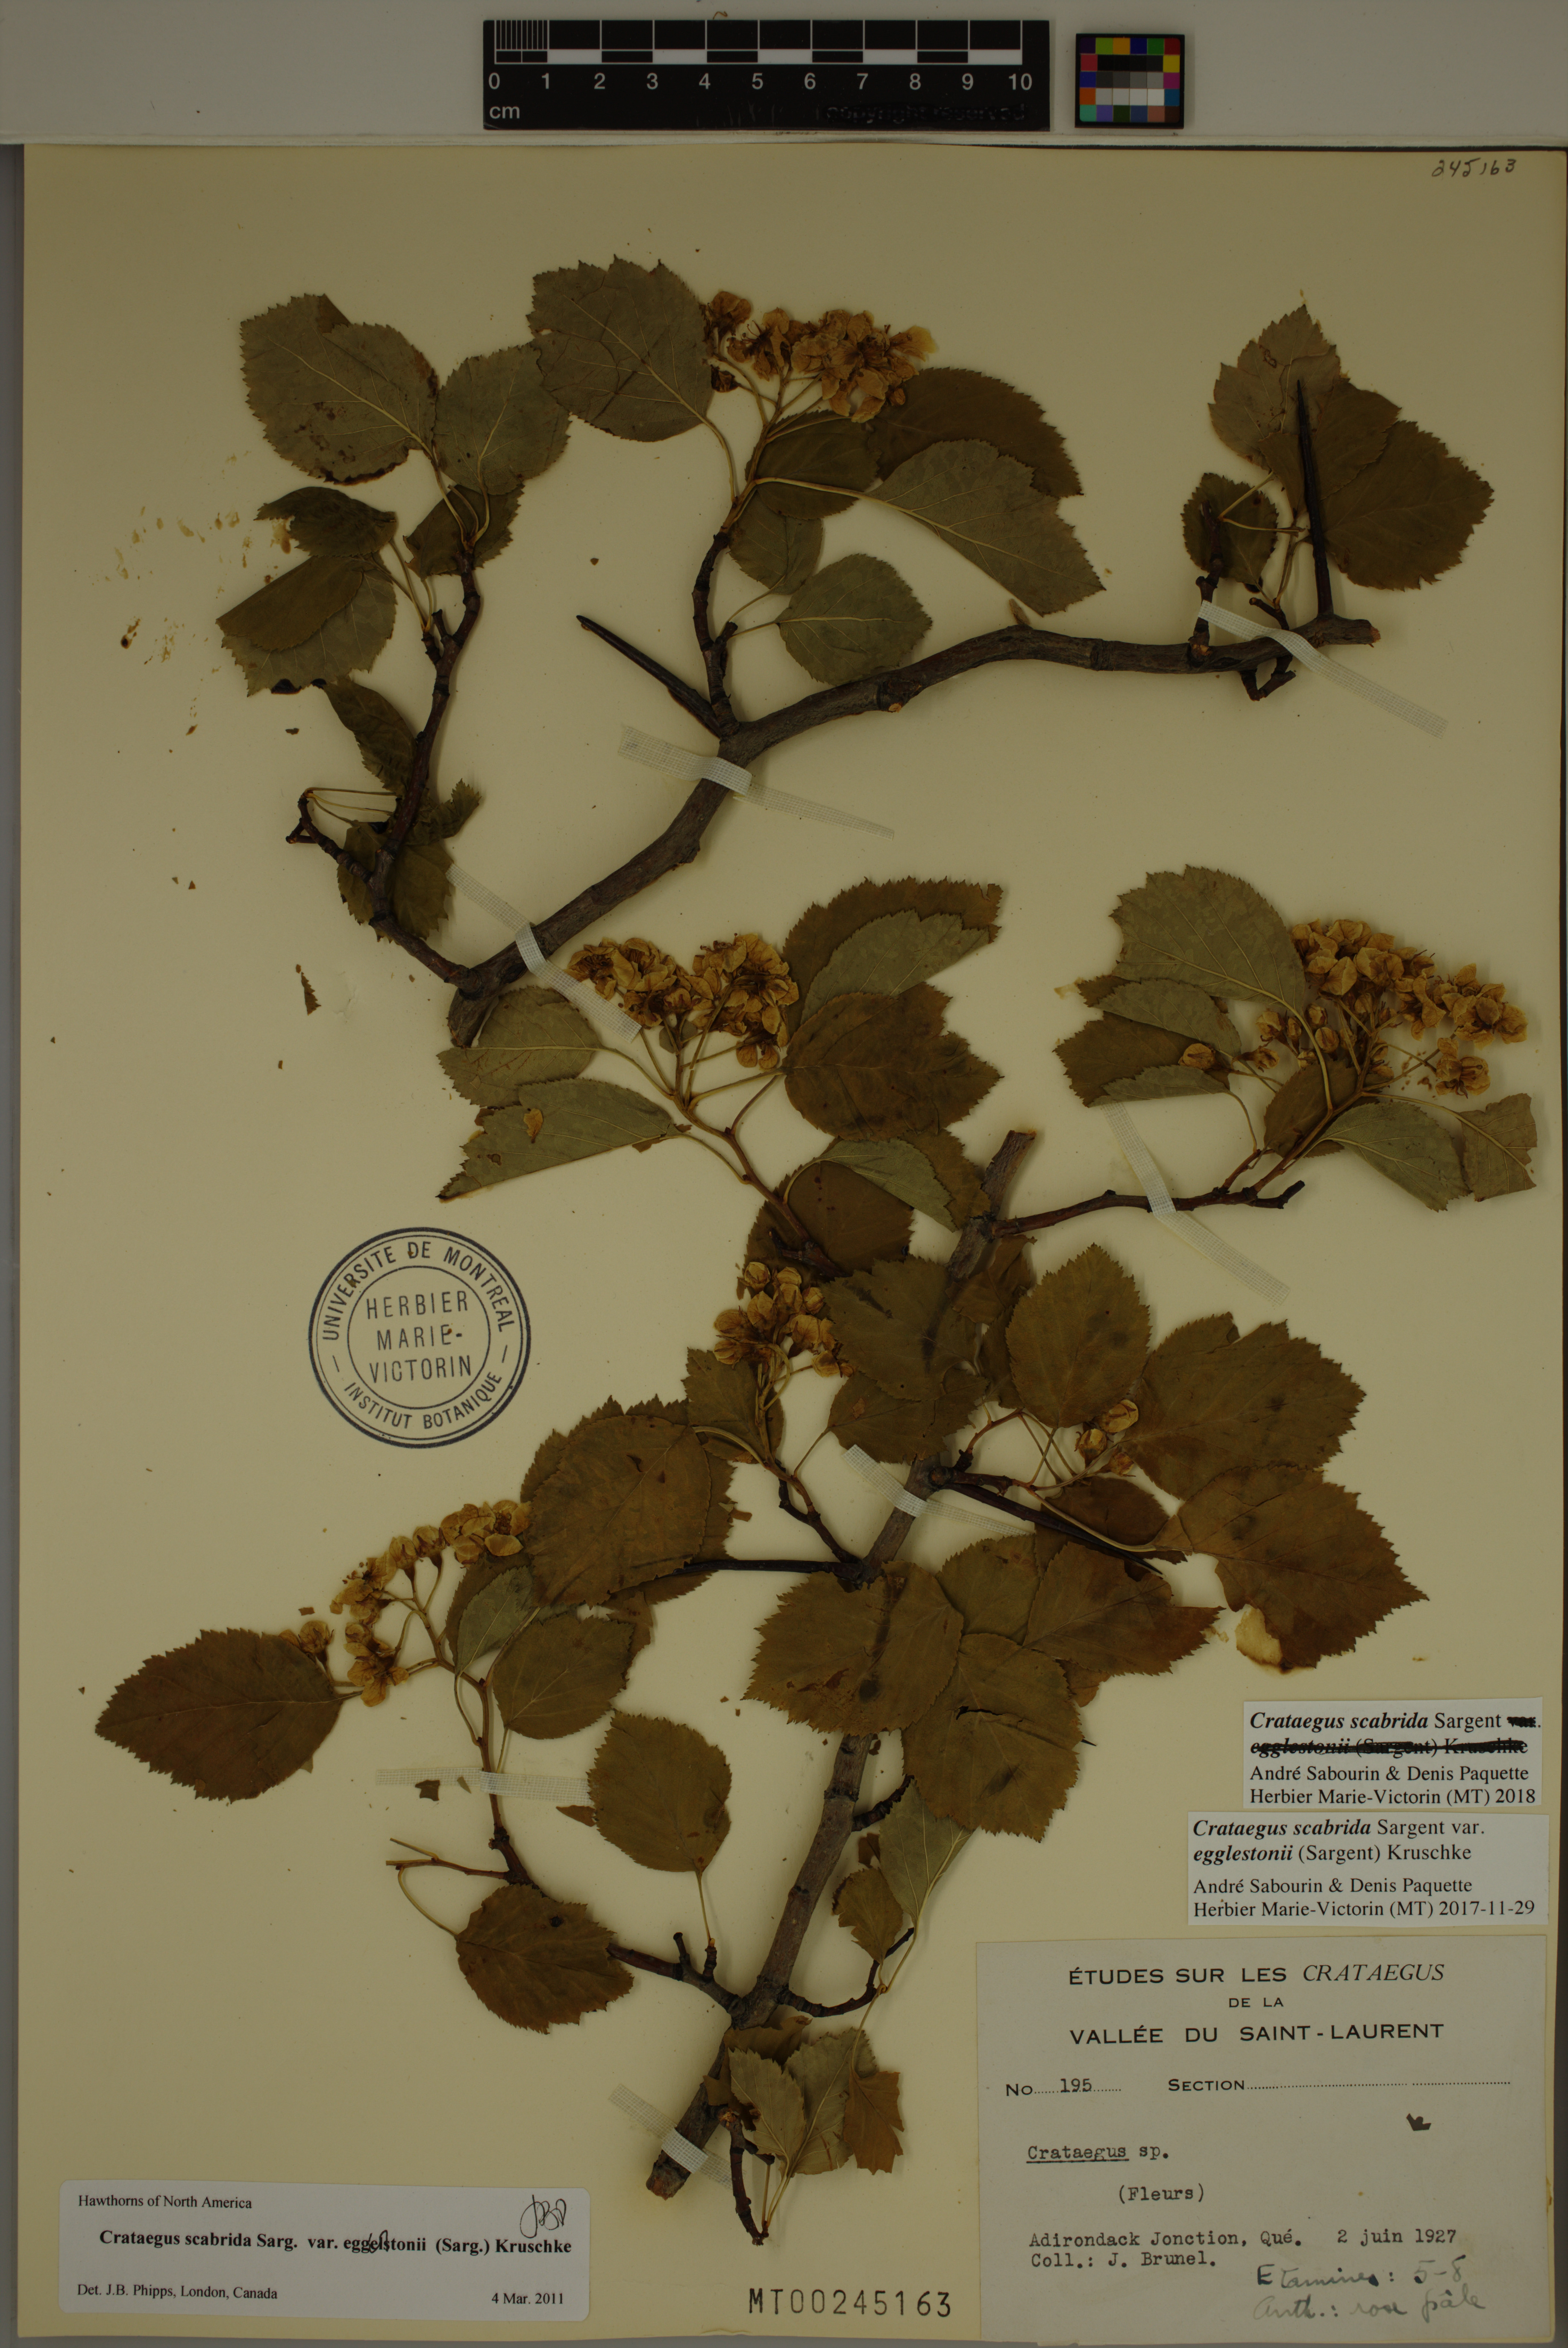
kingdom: Plantae
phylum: Tracheophyta
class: Magnoliopsida
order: Rosales
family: Rosaceae
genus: Crataegus
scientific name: Crataegus scabrida
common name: Rough hawthorn
